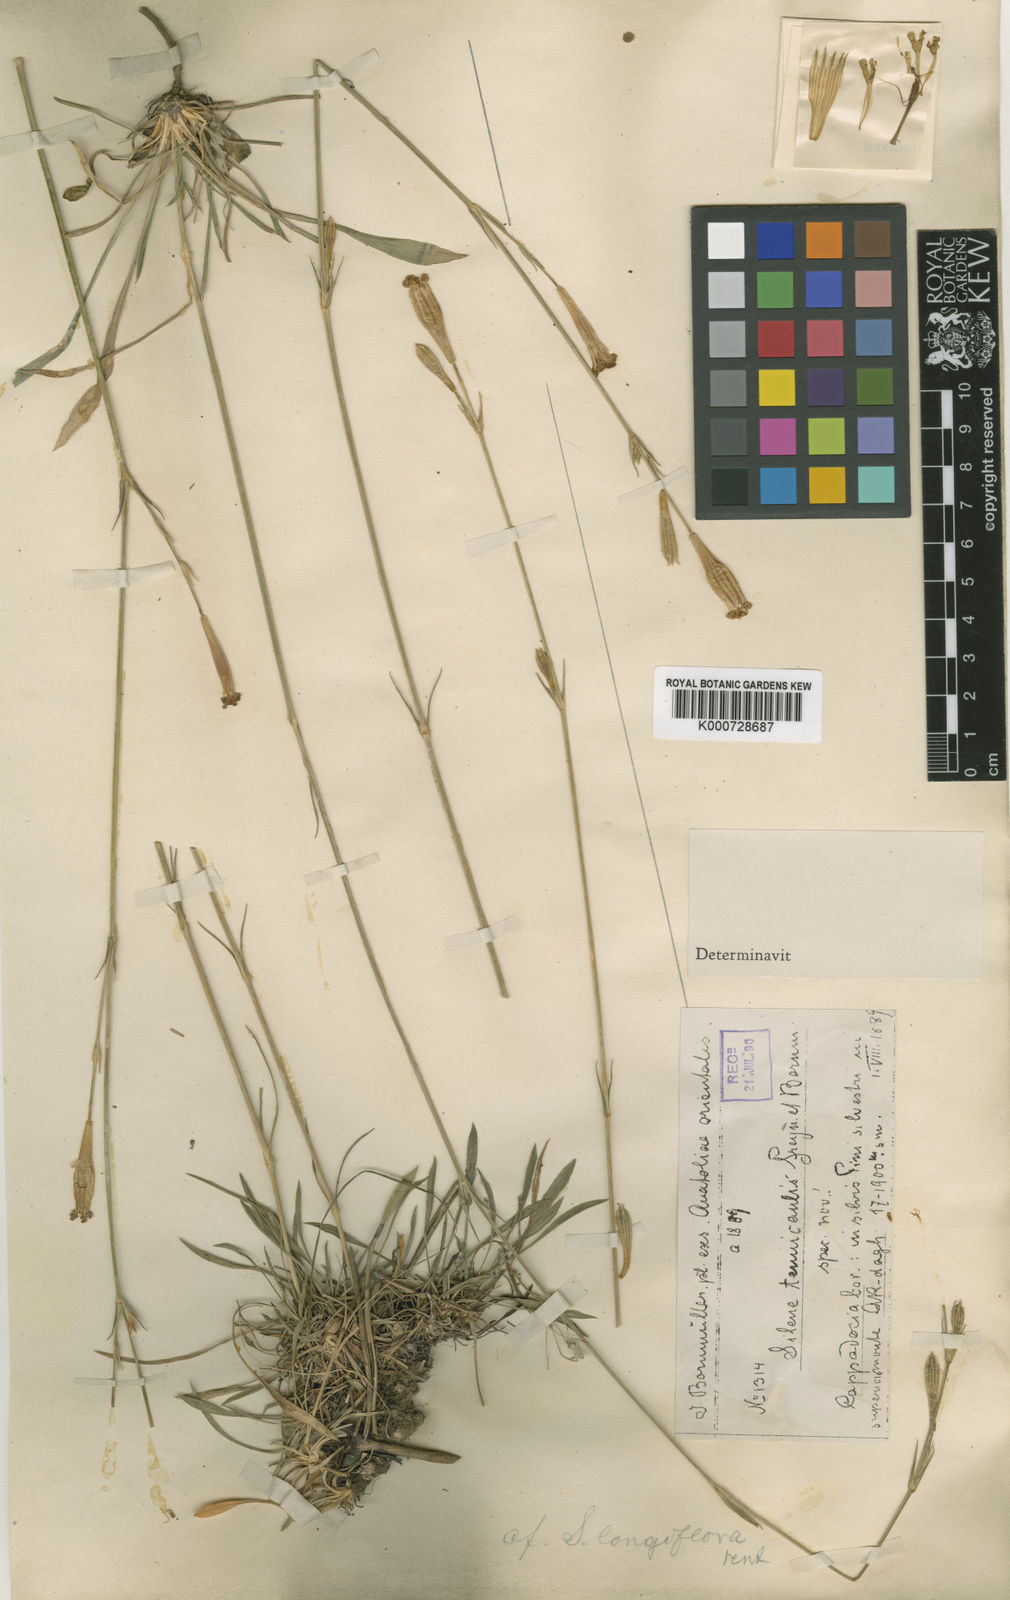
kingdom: Plantae
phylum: Tracheophyta
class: Magnoliopsida
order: Caryophyllales
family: Caryophyllaceae
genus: Silene
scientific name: Silene armena
